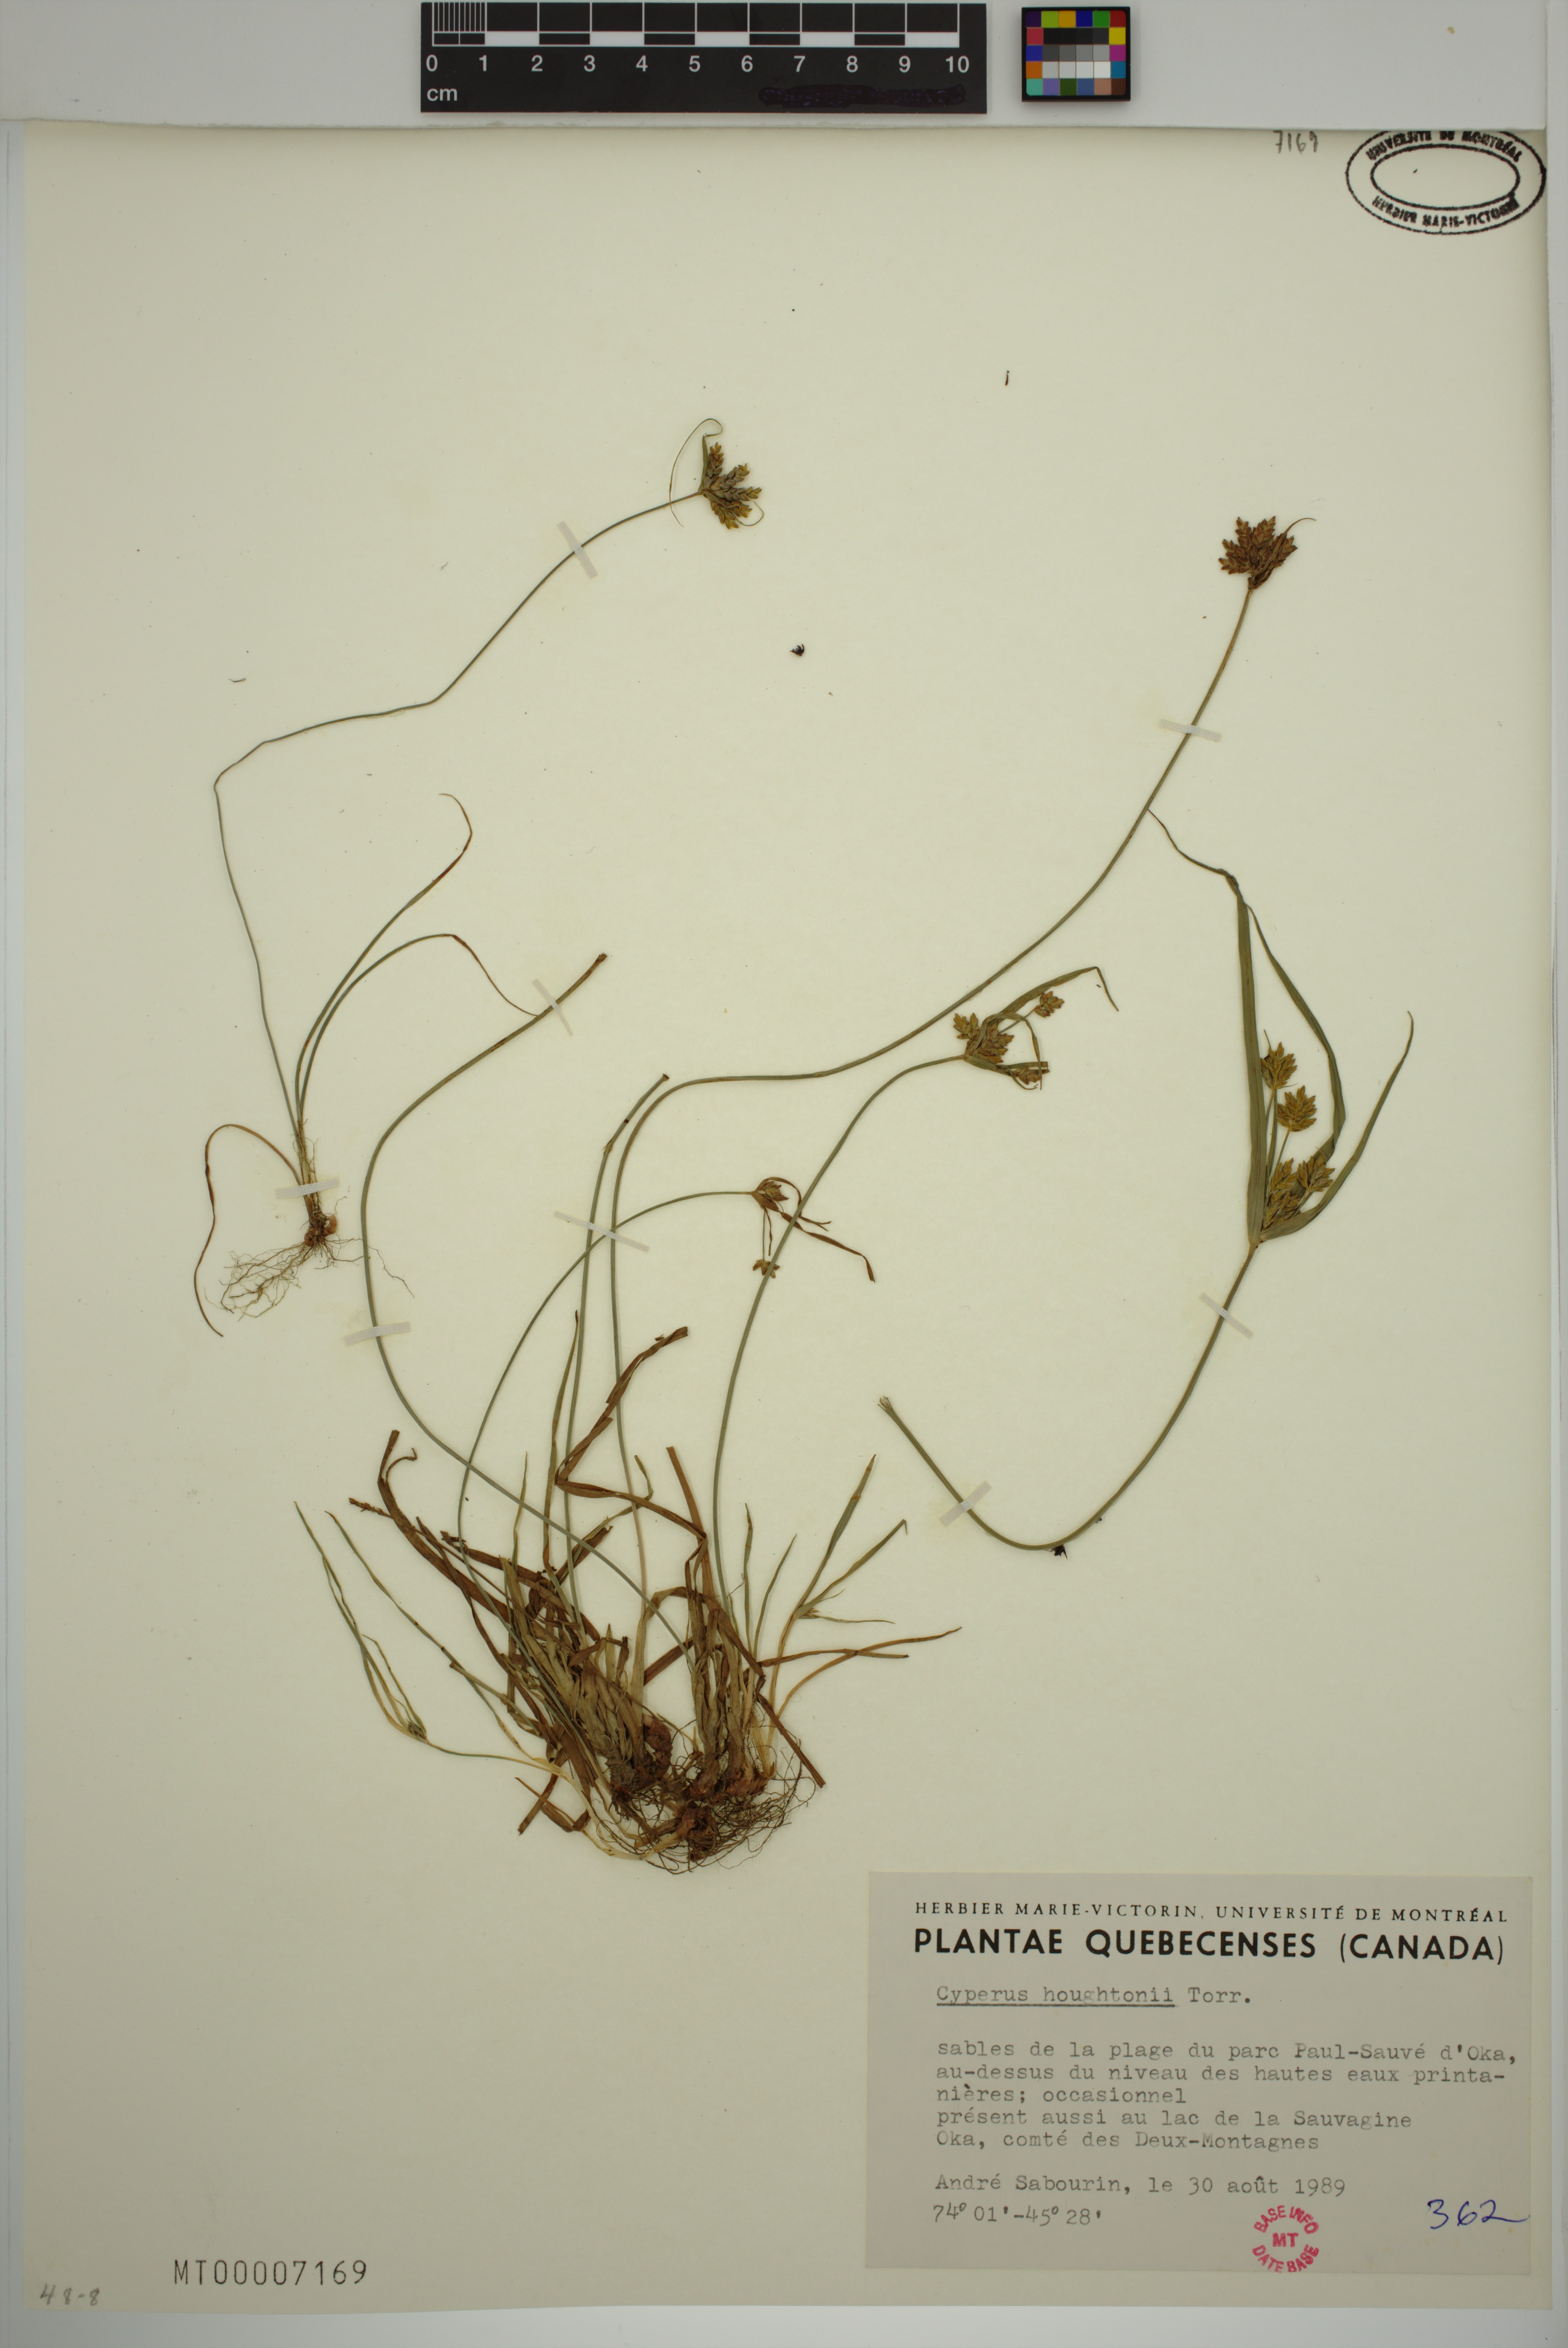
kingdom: Plantae
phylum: Tracheophyta
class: Liliopsida
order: Poales
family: Cyperaceae
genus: Cyperus
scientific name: Cyperus houghtonii
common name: Houghton's cyperus
